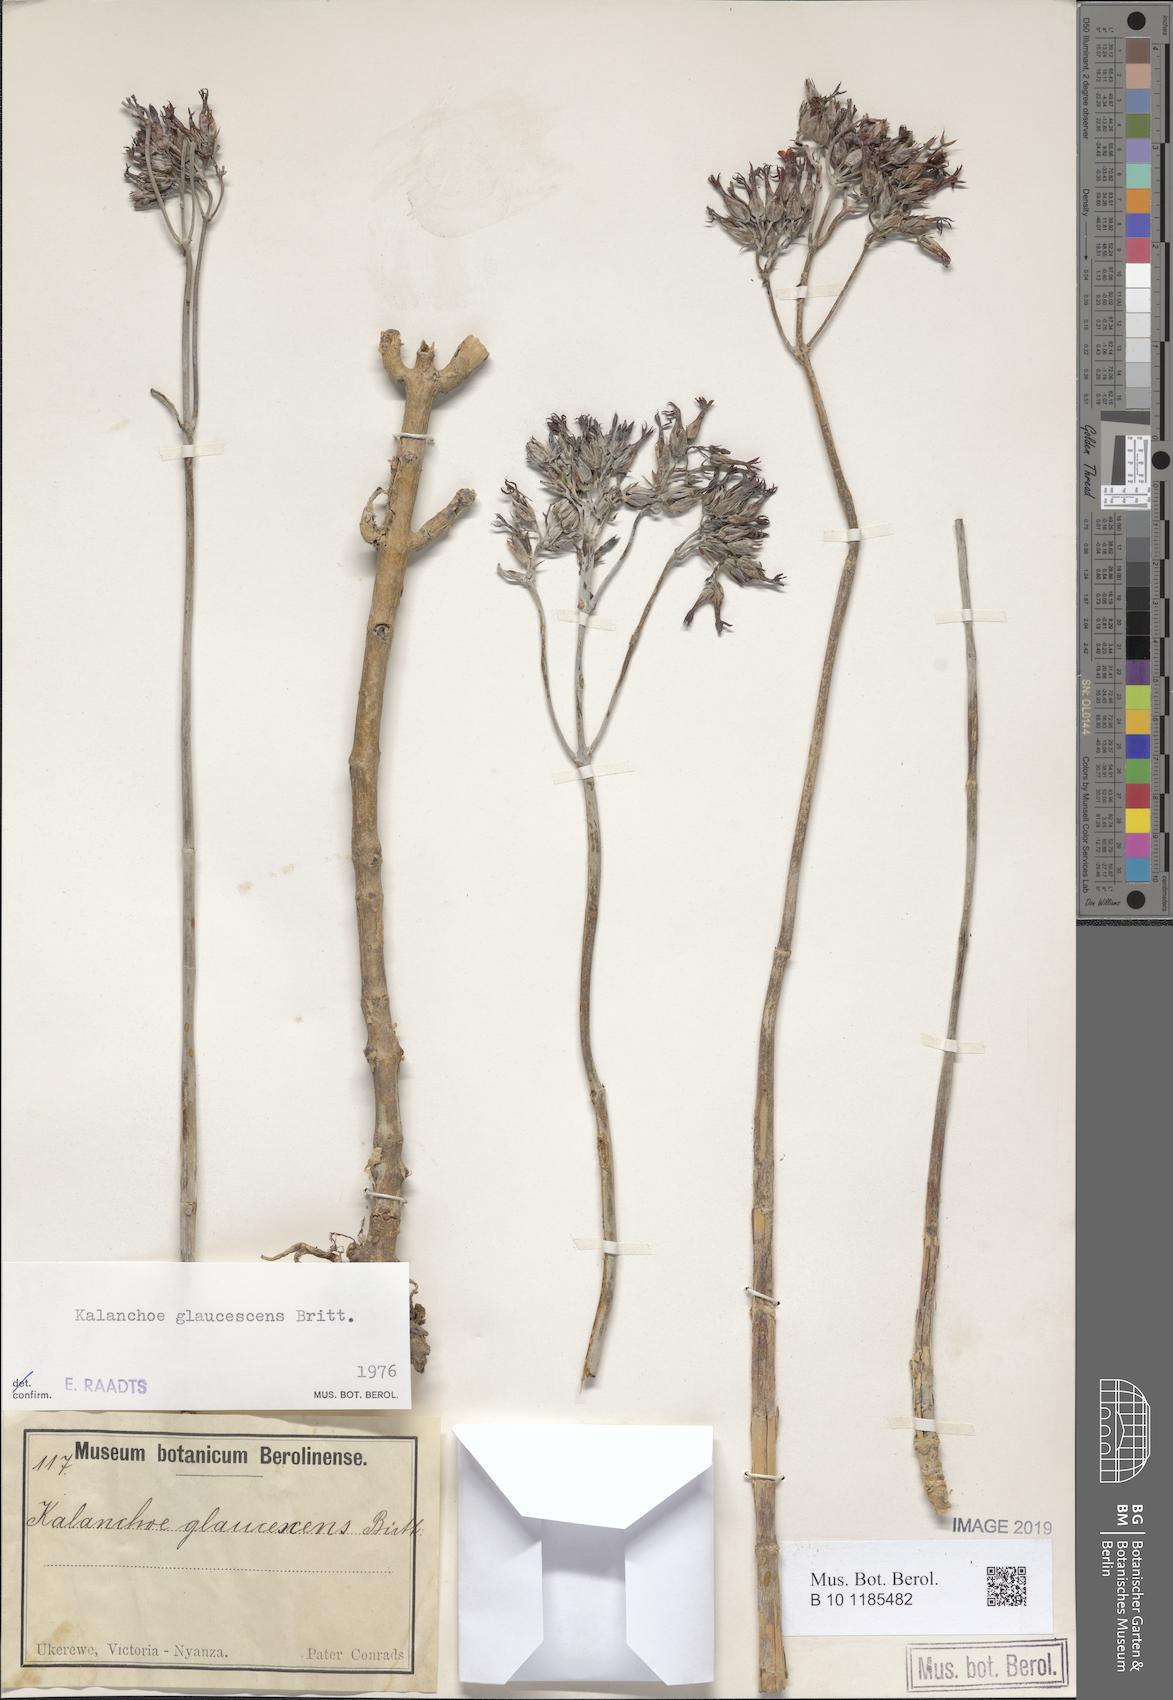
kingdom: Plantae
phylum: Tracheophyta
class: Magnoliopsida
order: Saxifragales
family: Crassulaceae
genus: Kalanchoe
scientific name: Kalanchoe glaucescens
